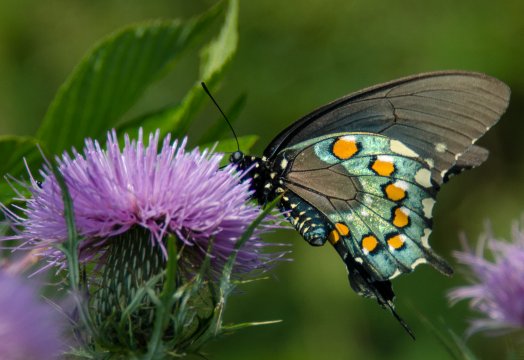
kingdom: Animalia
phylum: Arthropoda
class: Insecta
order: Lepidoptera
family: Papilionidae
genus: Battus
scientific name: Battus philenor
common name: Pipevine Swallowtail
